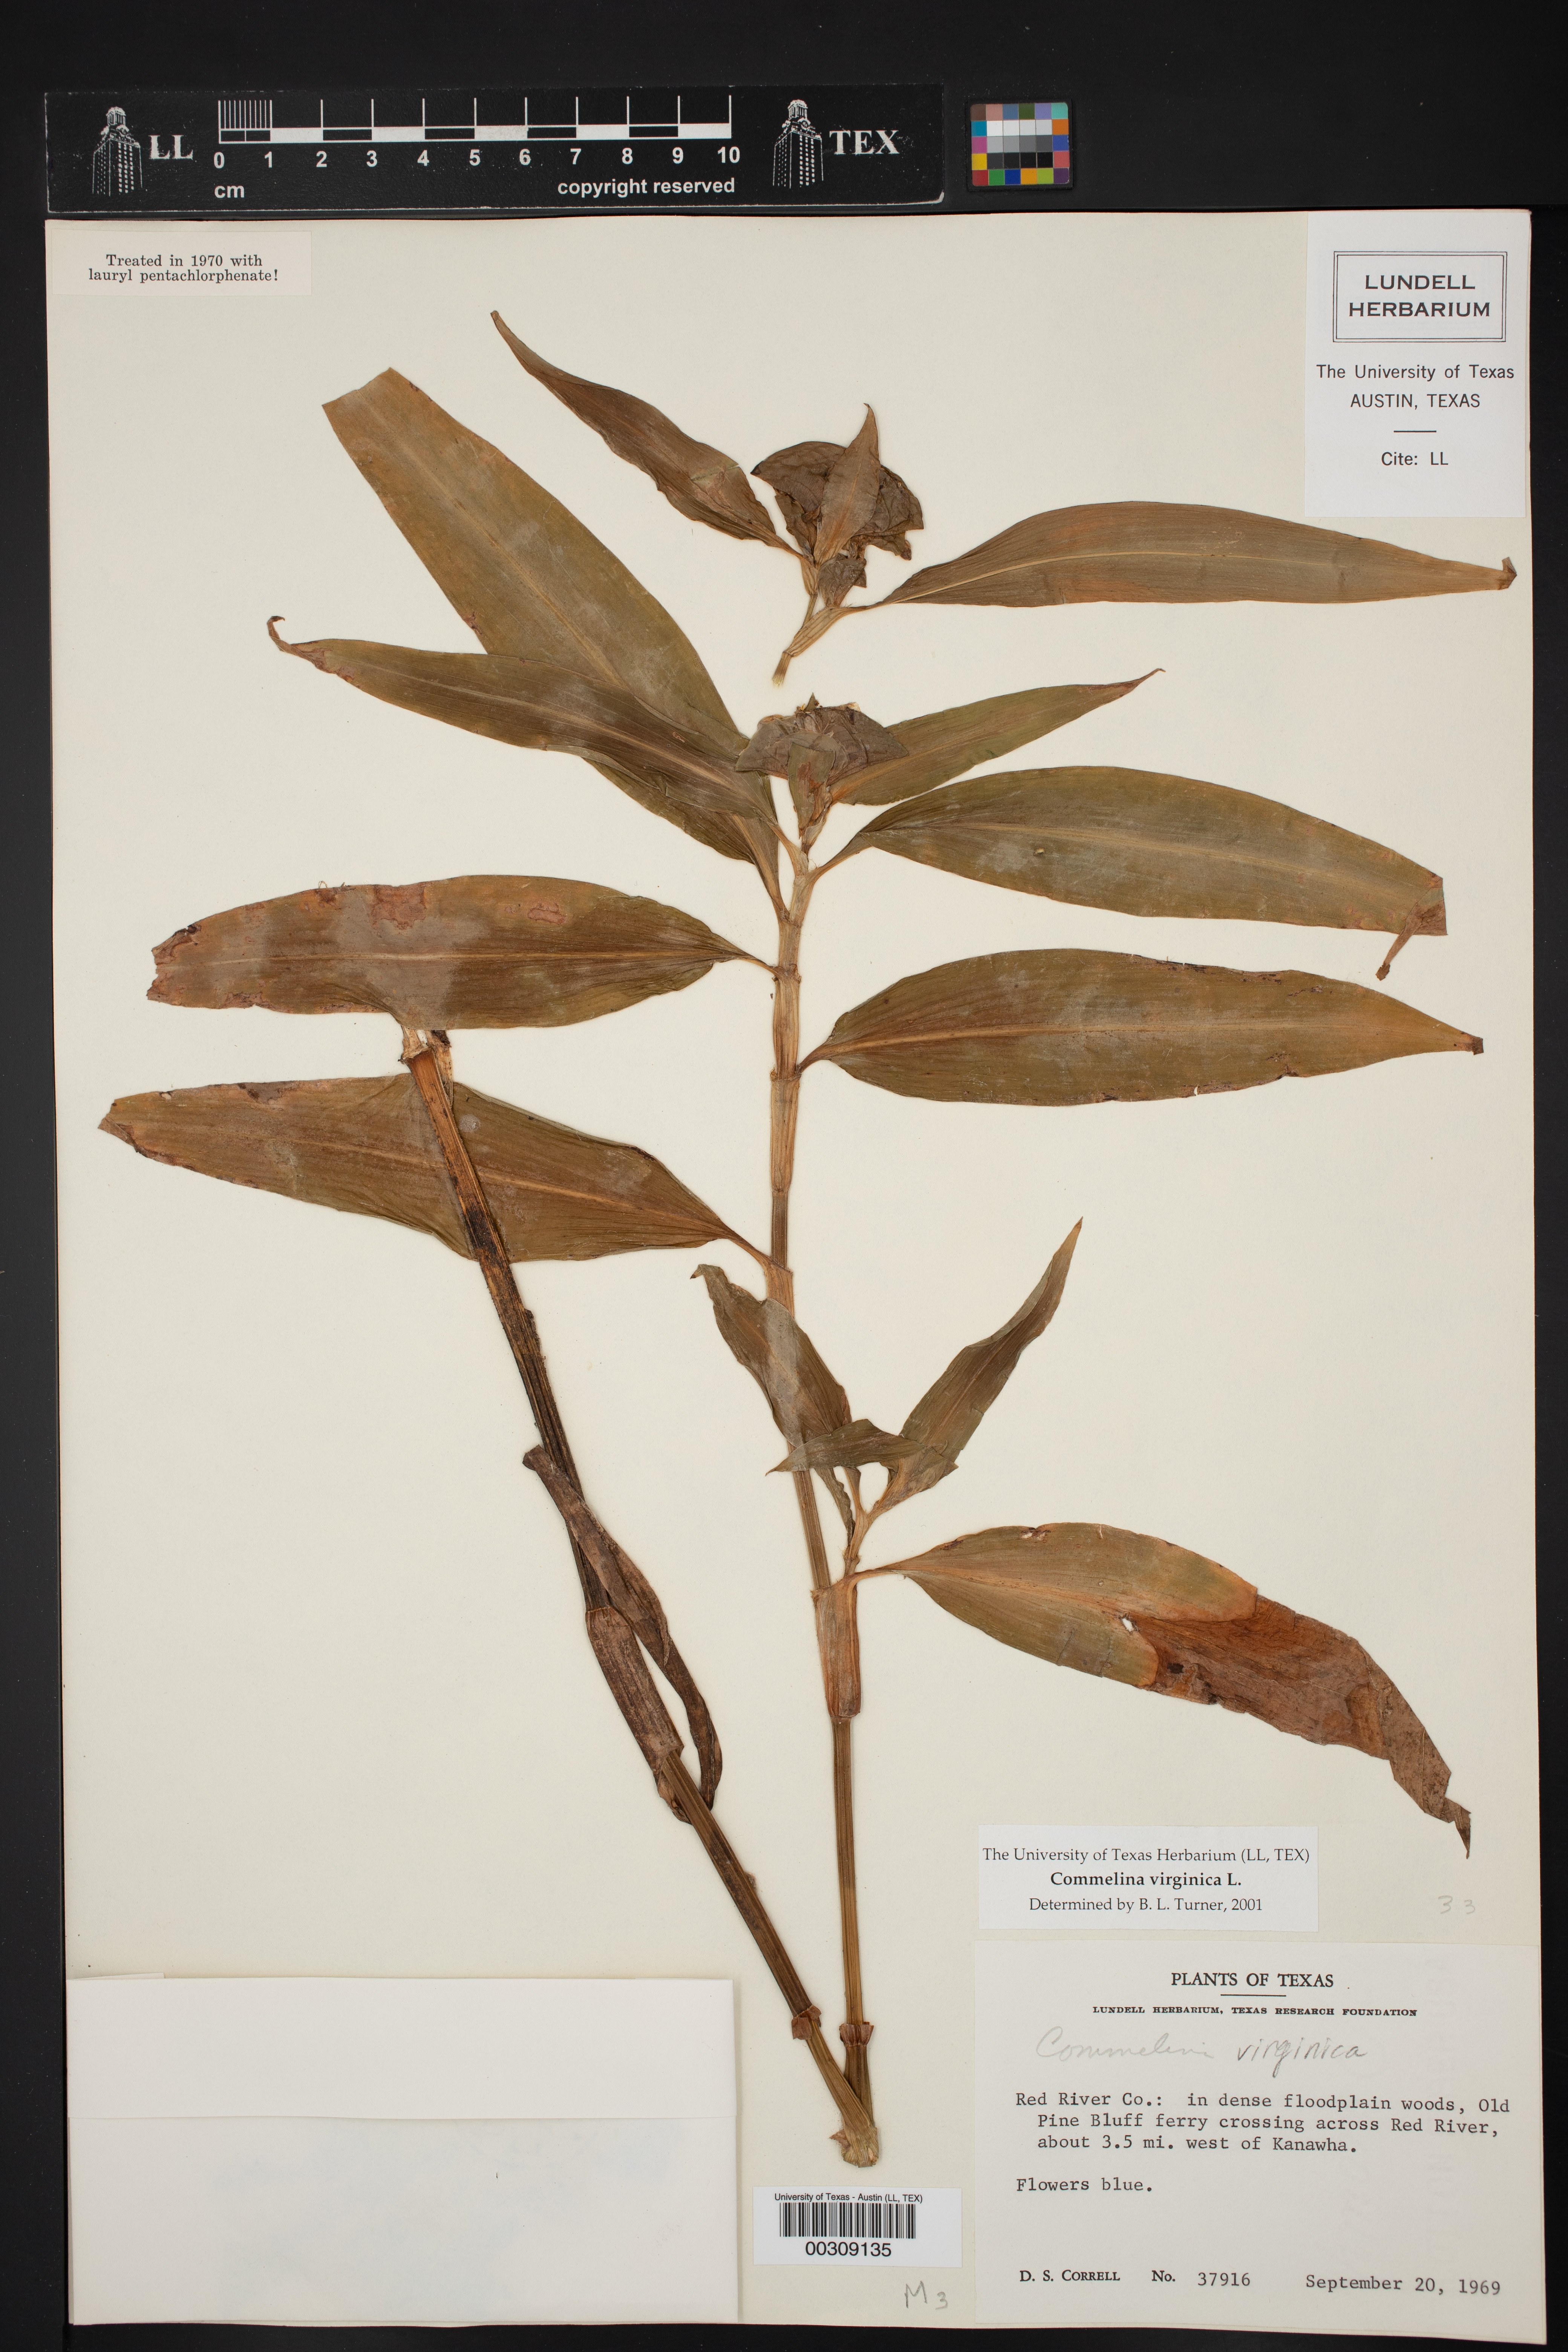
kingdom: Plantae
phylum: Tracheophyta
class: Liliopsida
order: Commelinales
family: Commelinaceae
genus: Commelina
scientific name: Commelina virginica
